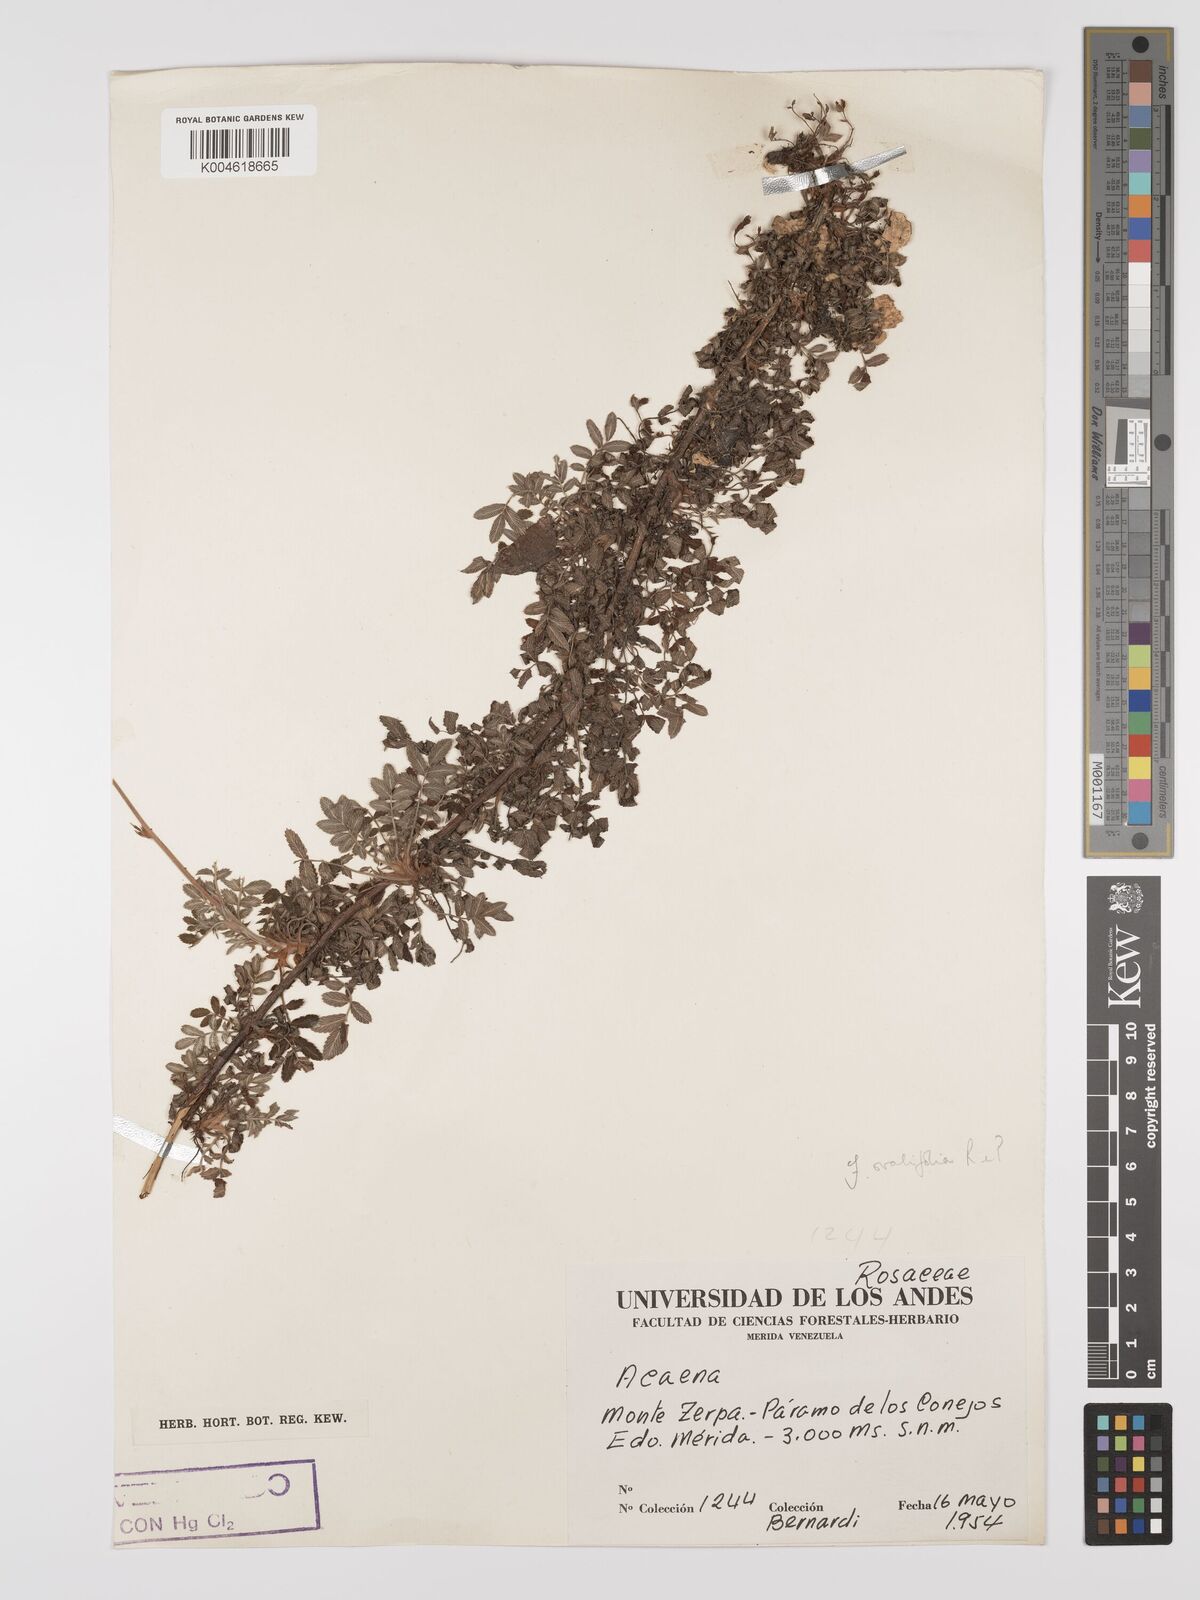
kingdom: Plantae
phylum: Tracheophyta
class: Magnoliopsida
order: Rosales
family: Rosaceae
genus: Acaena
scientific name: Acaena ovalifolia
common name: Two-spined acaena
